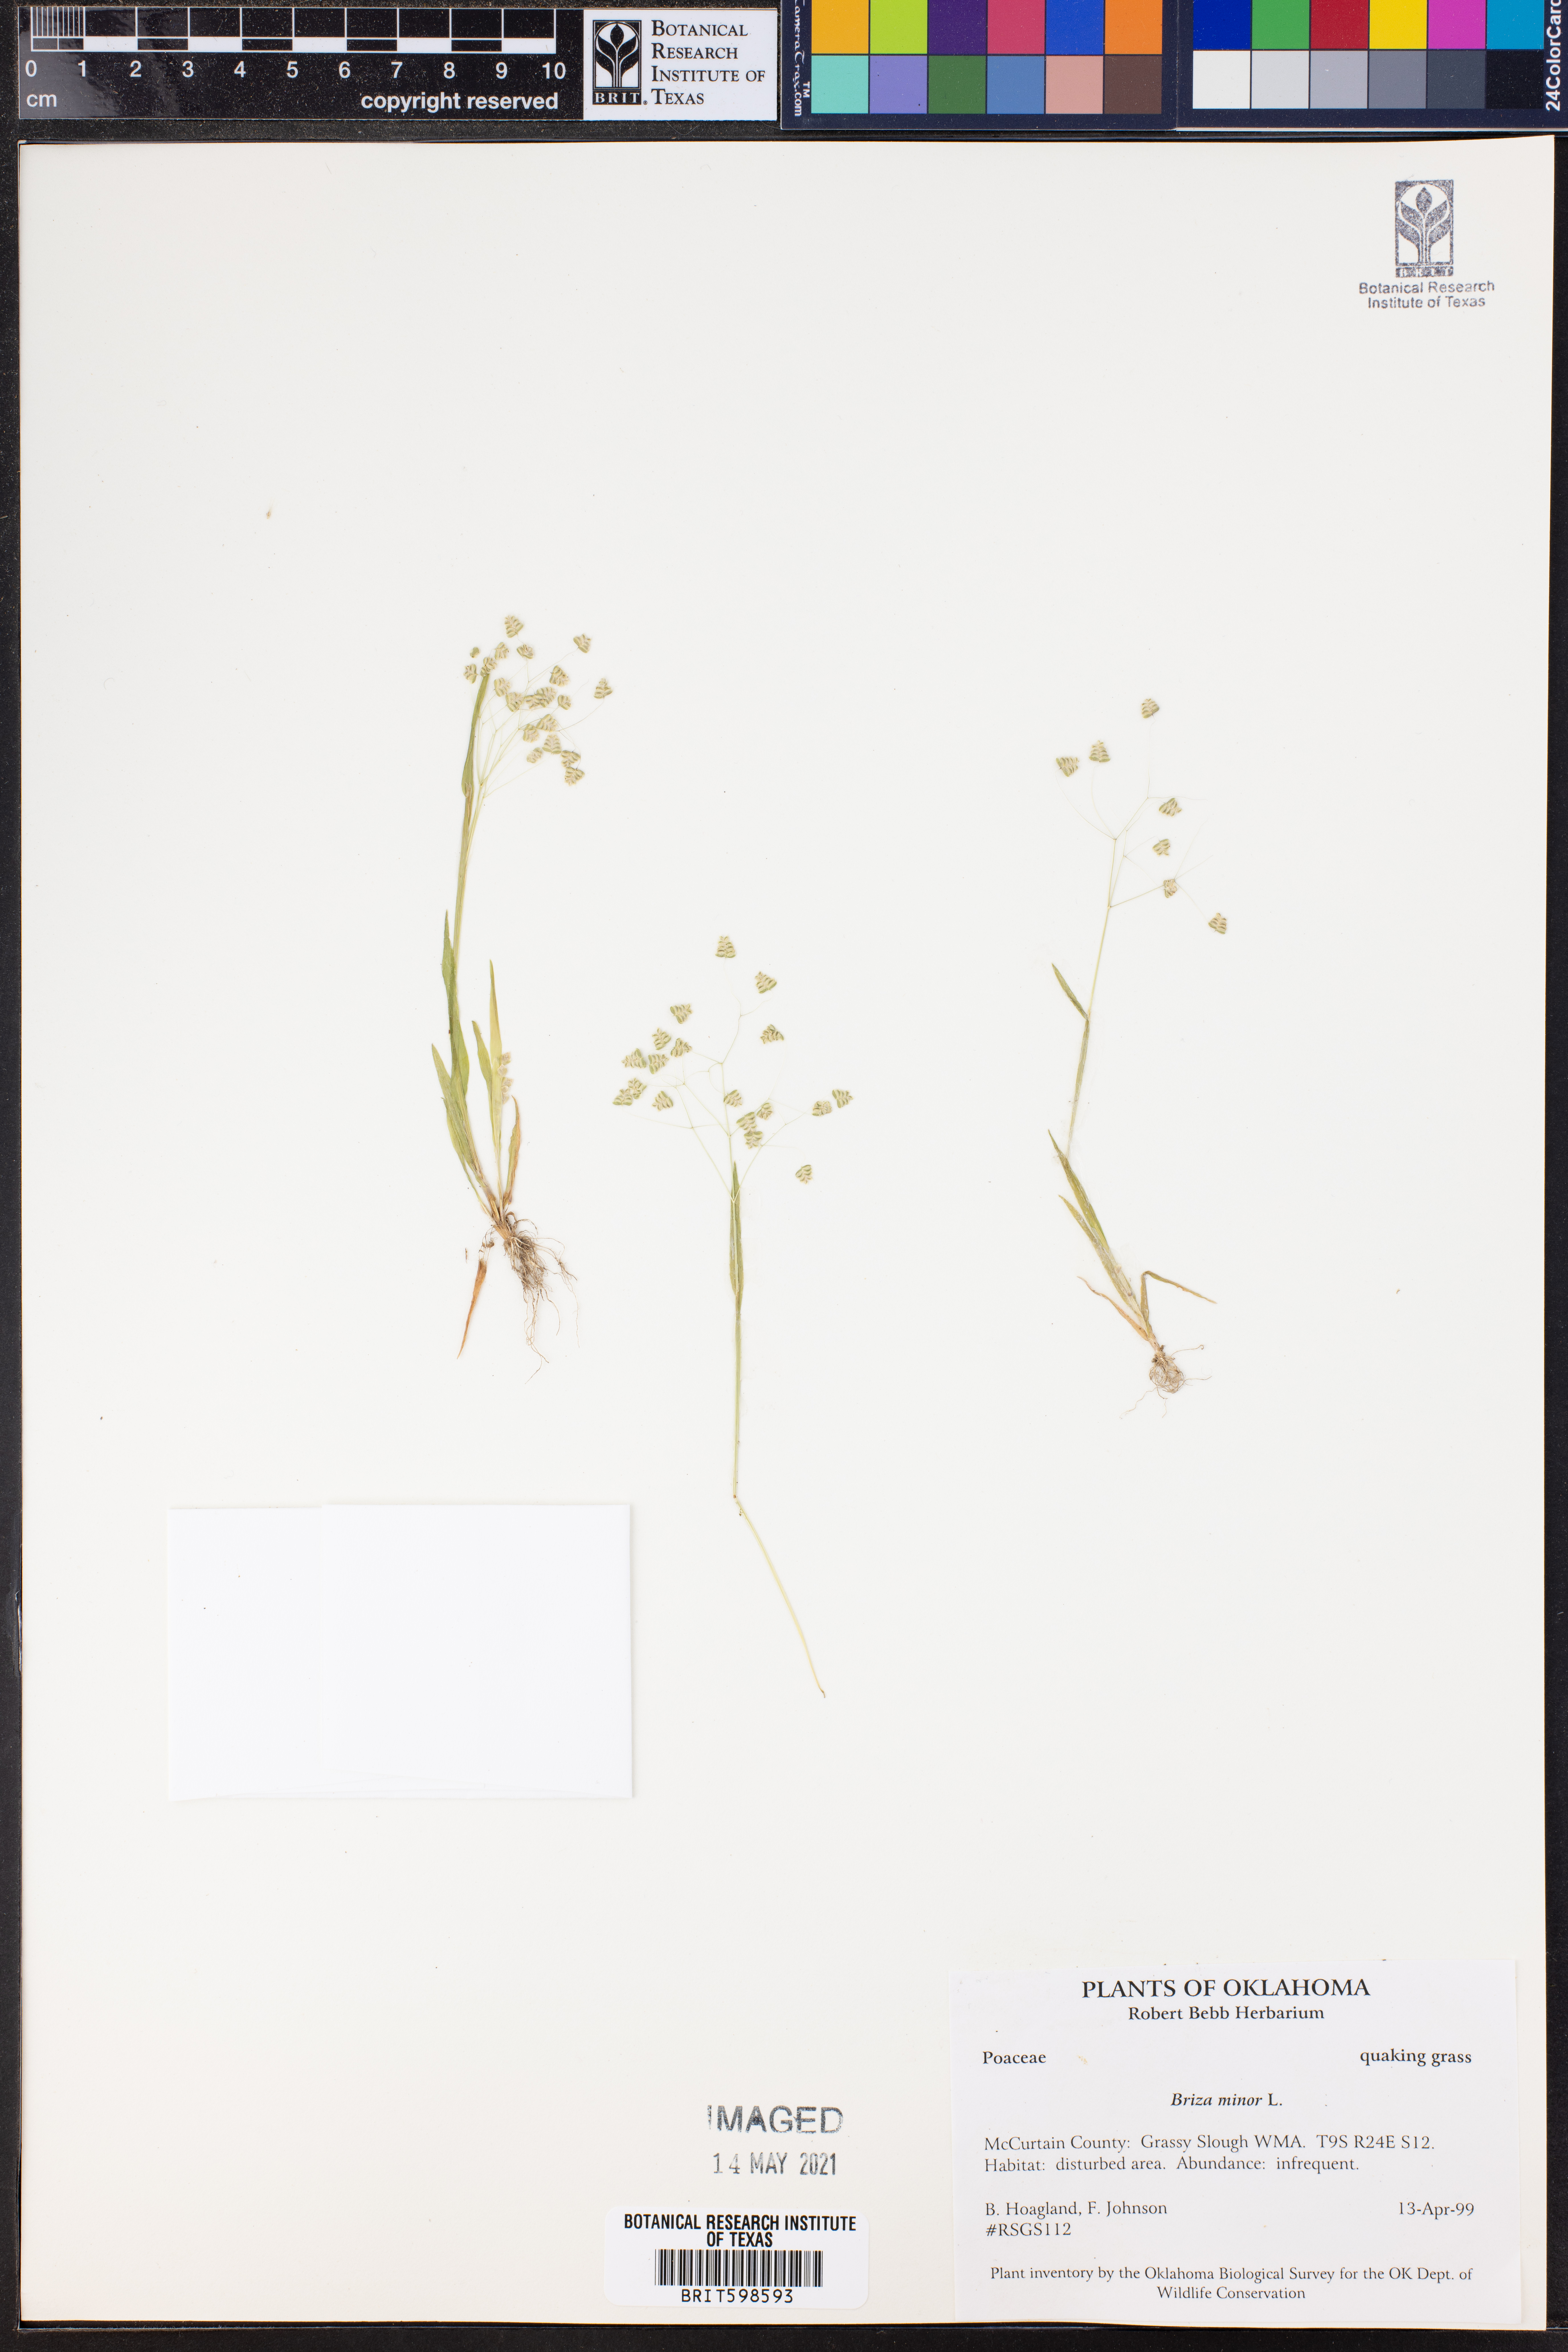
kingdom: Plantae
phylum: Tracheophyta
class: Liliopsida
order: Poales
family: Poaceae
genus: Briza
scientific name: Briza minor
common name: Lesser quaking-grass
